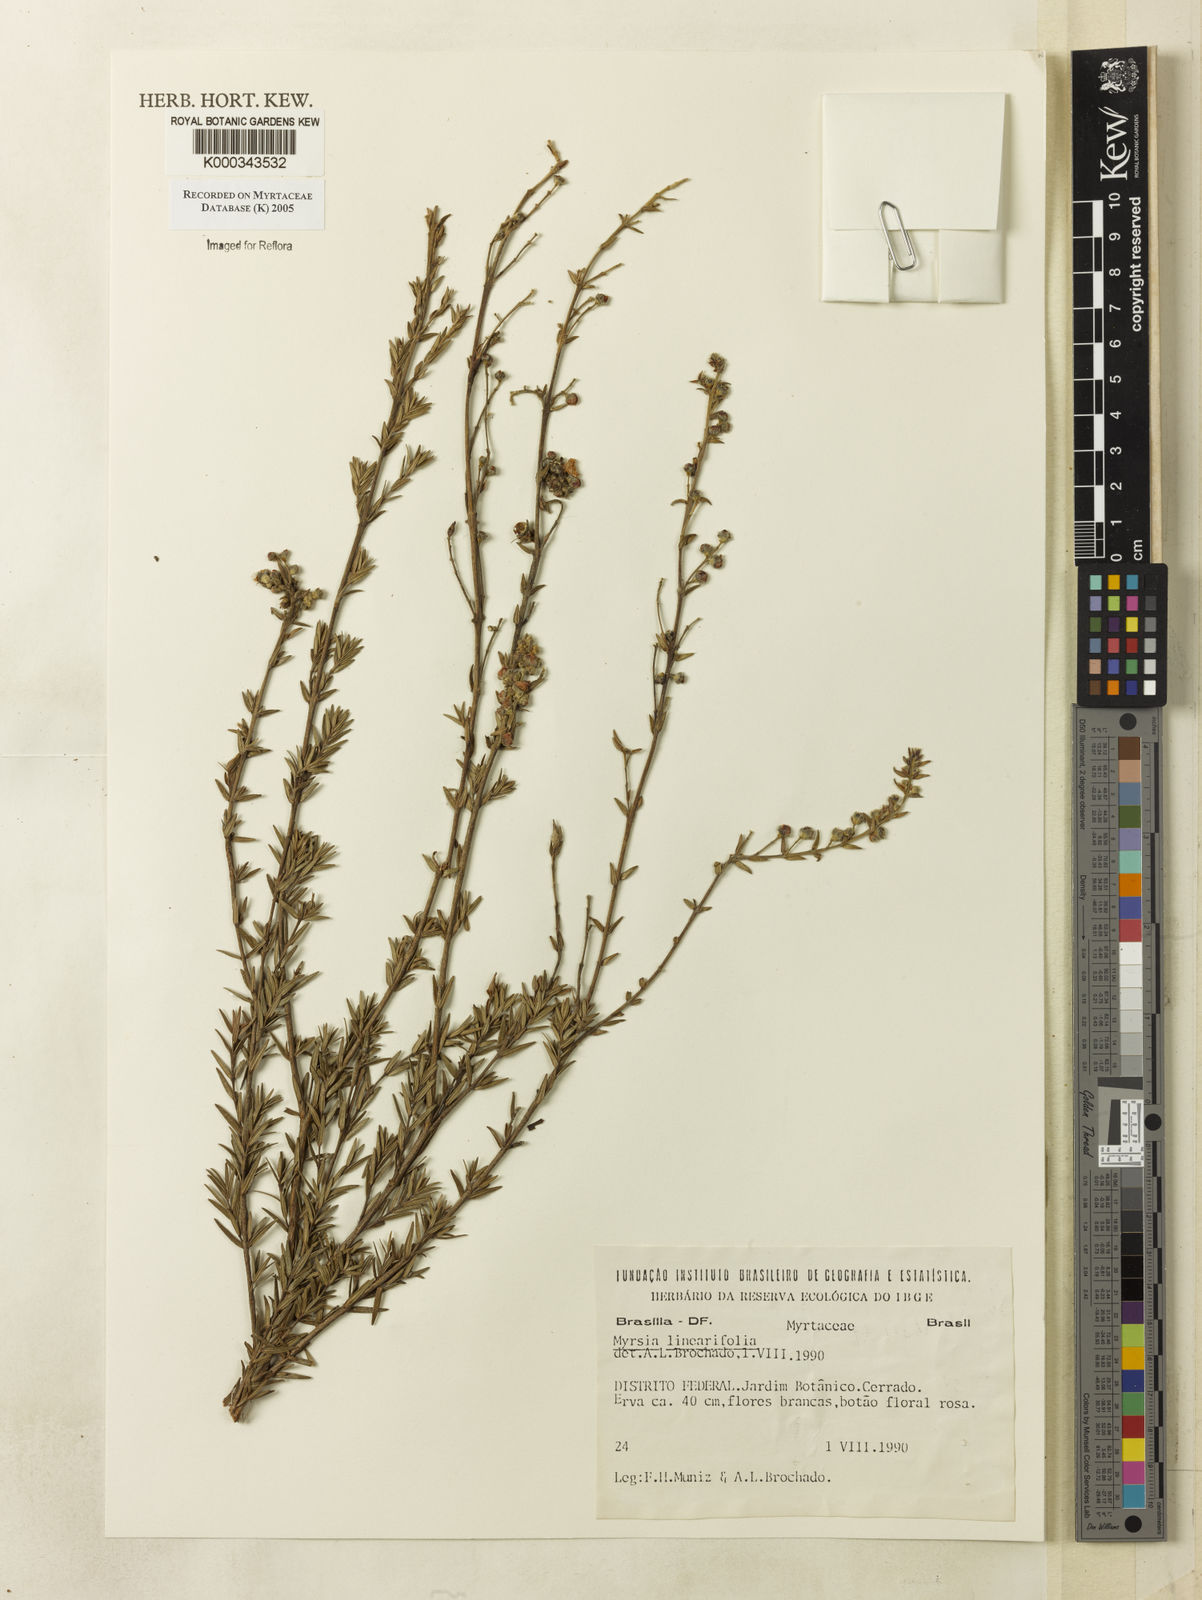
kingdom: Plantae
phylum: Tracheophyta
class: Magnoliopsida
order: Myrtales
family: Myrtaceae
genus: Myrcia
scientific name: Myrcia linearifolia
